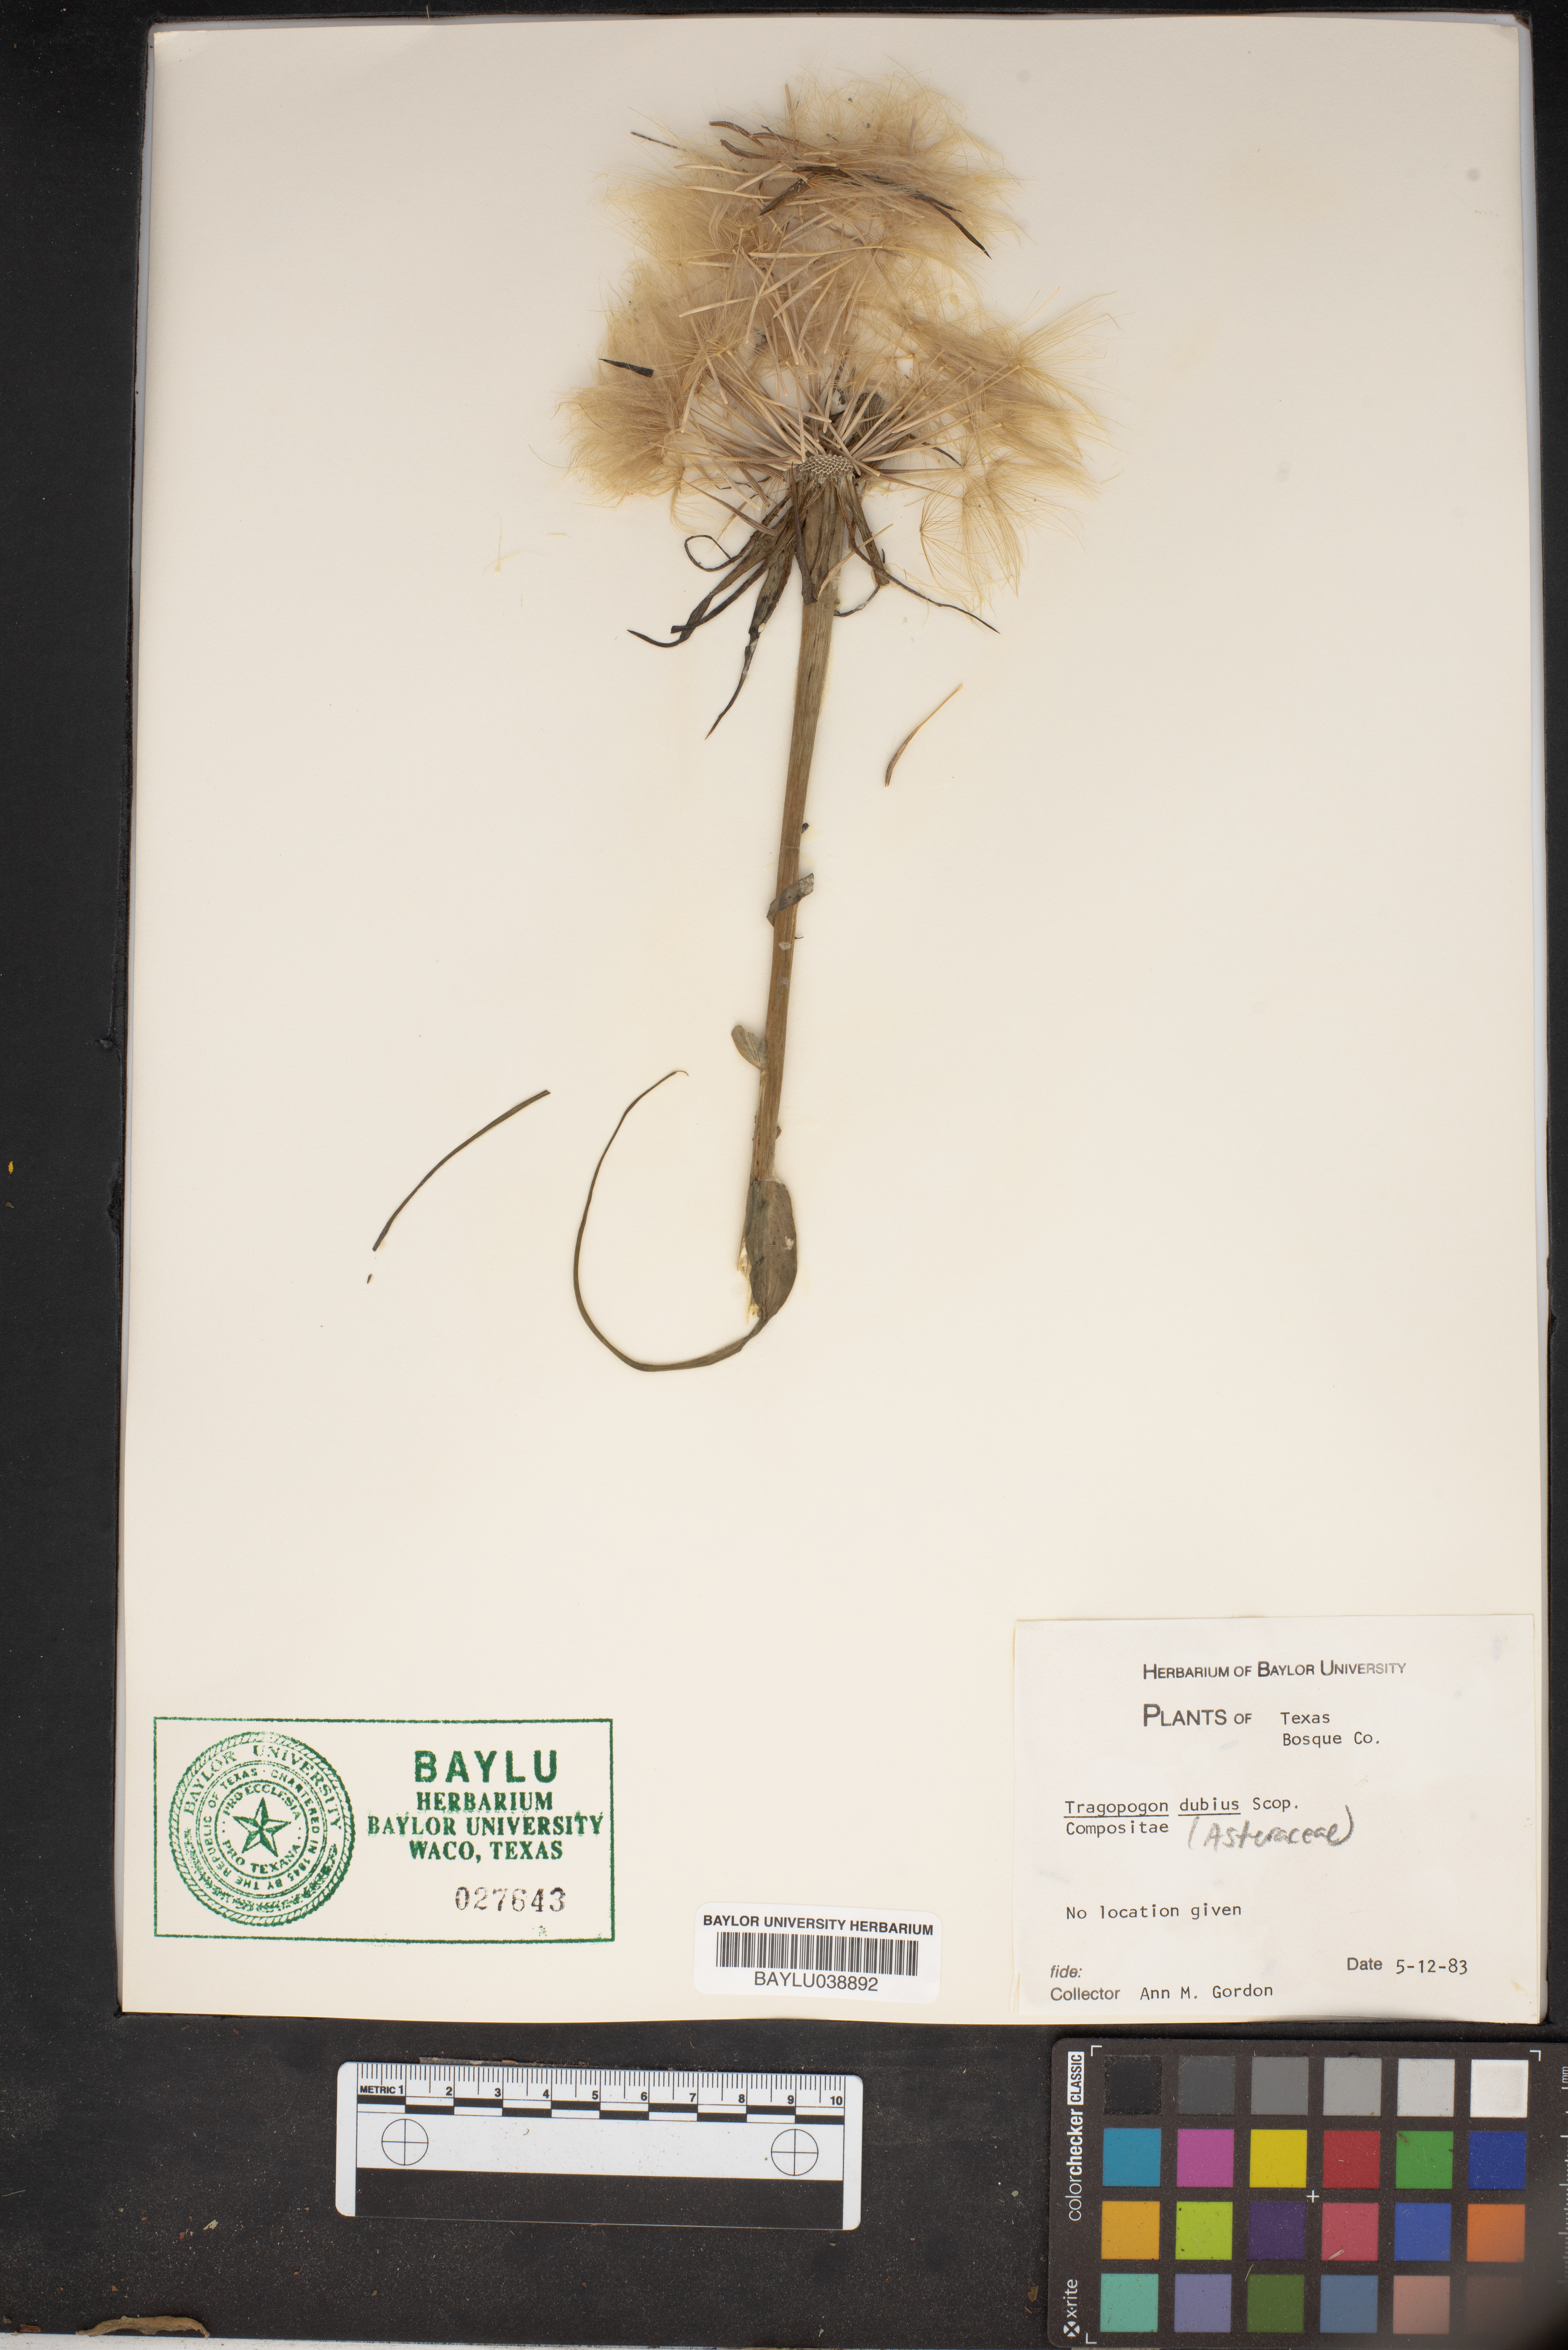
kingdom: Plantae
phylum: Tracheophyta
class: Magnoliopsida
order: Asterales
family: Asteraceae
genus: Tragopogon
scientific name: Tragopogon dubius
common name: Yellow salsify
